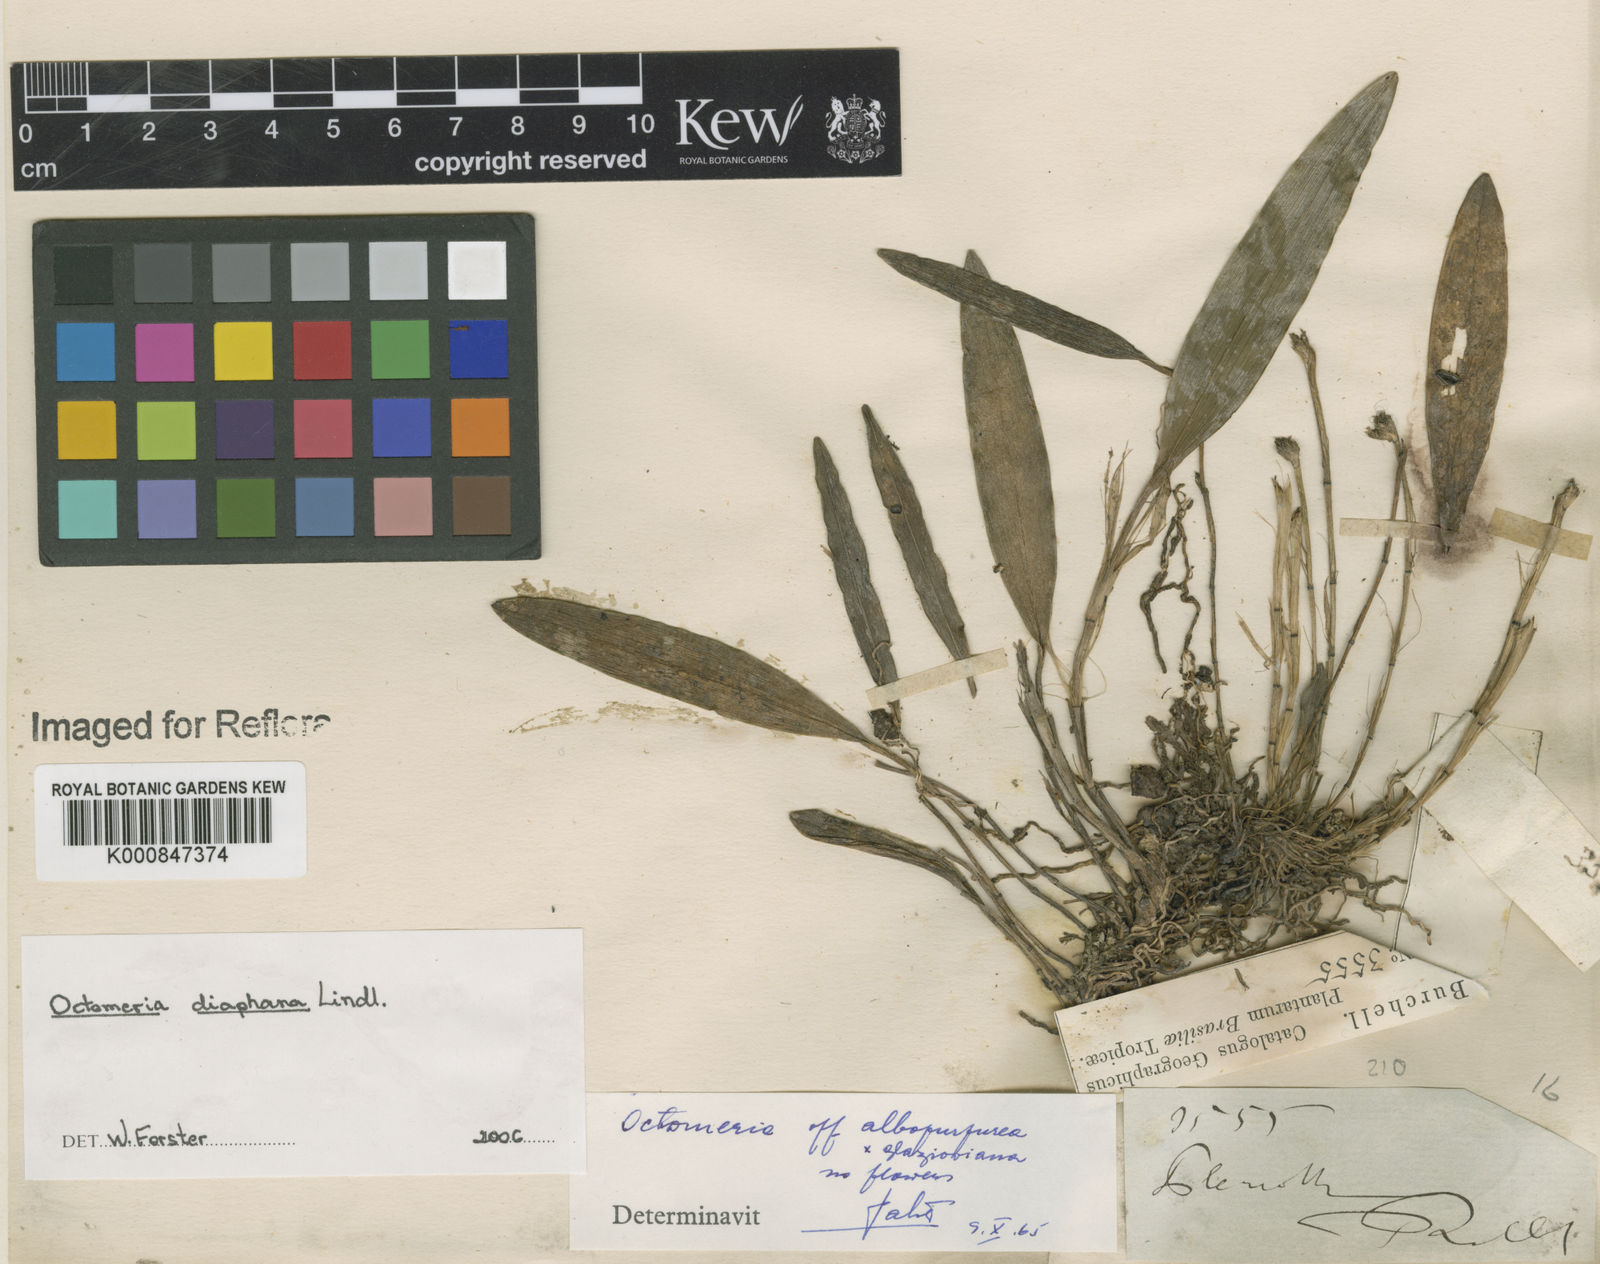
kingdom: Plantae
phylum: Tracheophyta
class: Liliopsida
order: Asparagales
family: Orchidaceae
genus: Octomeria
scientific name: Octomeria diaphana
